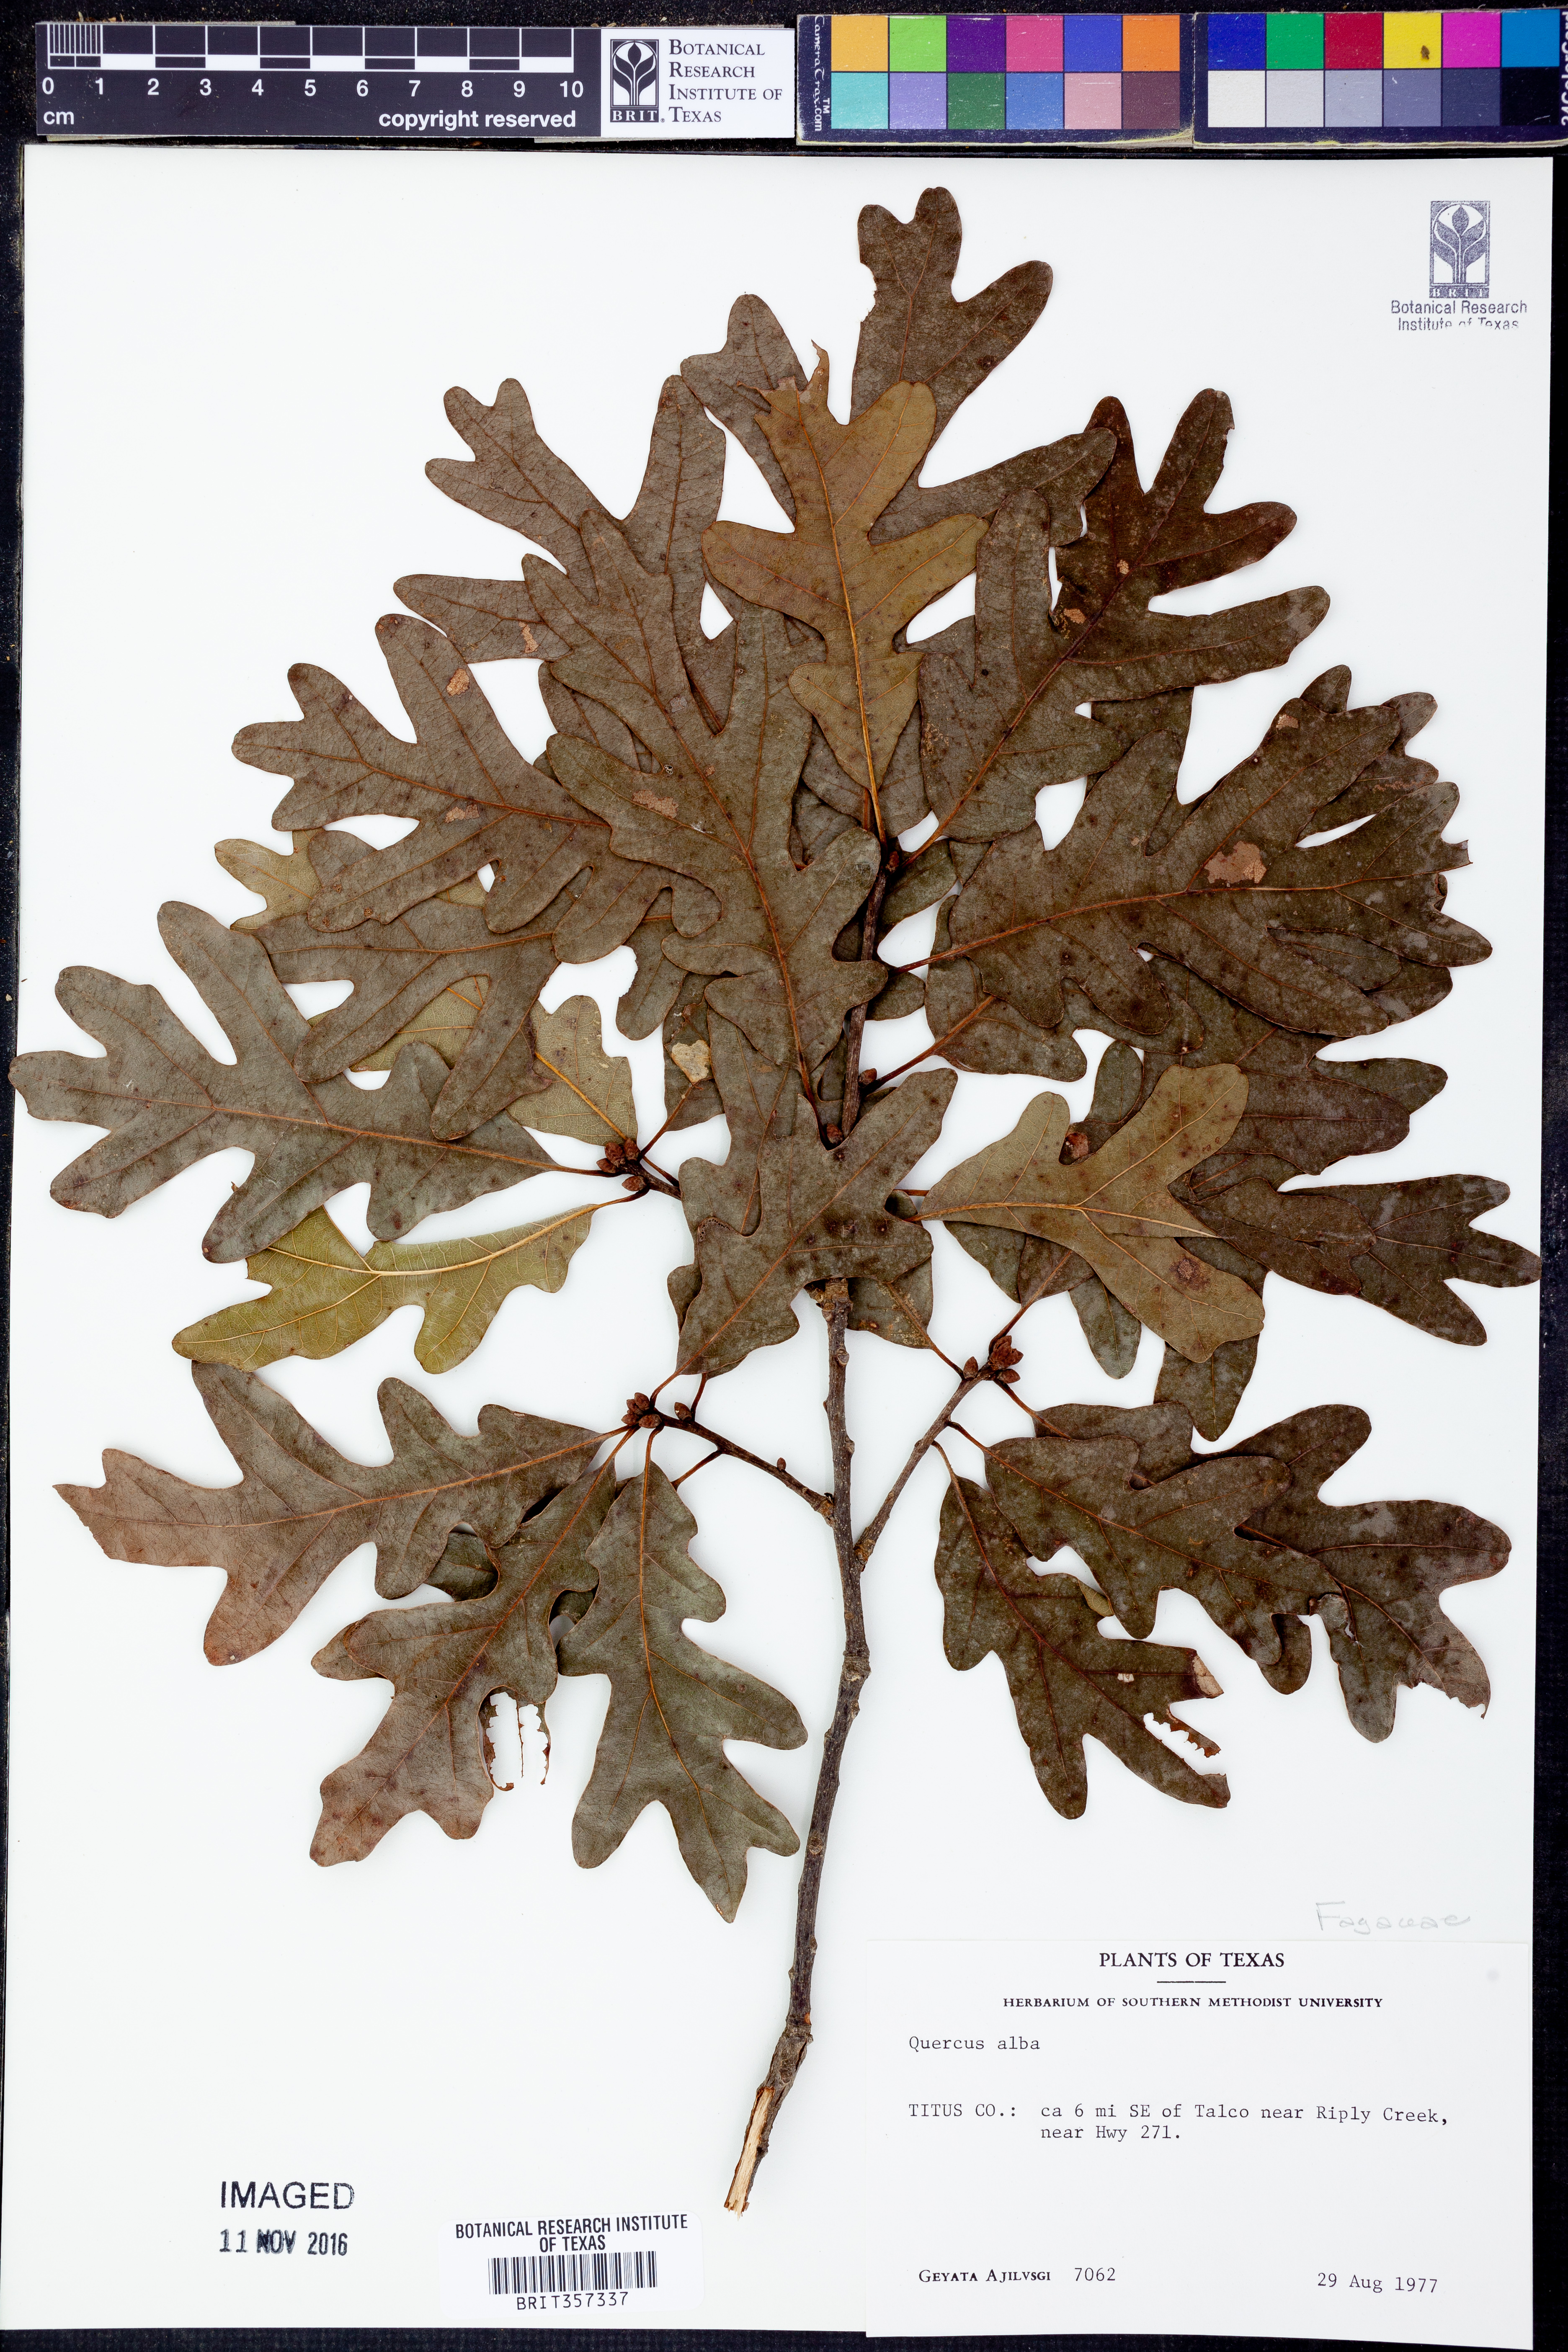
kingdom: Plantae
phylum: Tracheophyta
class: Magnoliopsida
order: Fagales
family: Fagaceae
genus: Quercus
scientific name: Quercus alba
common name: White oak
